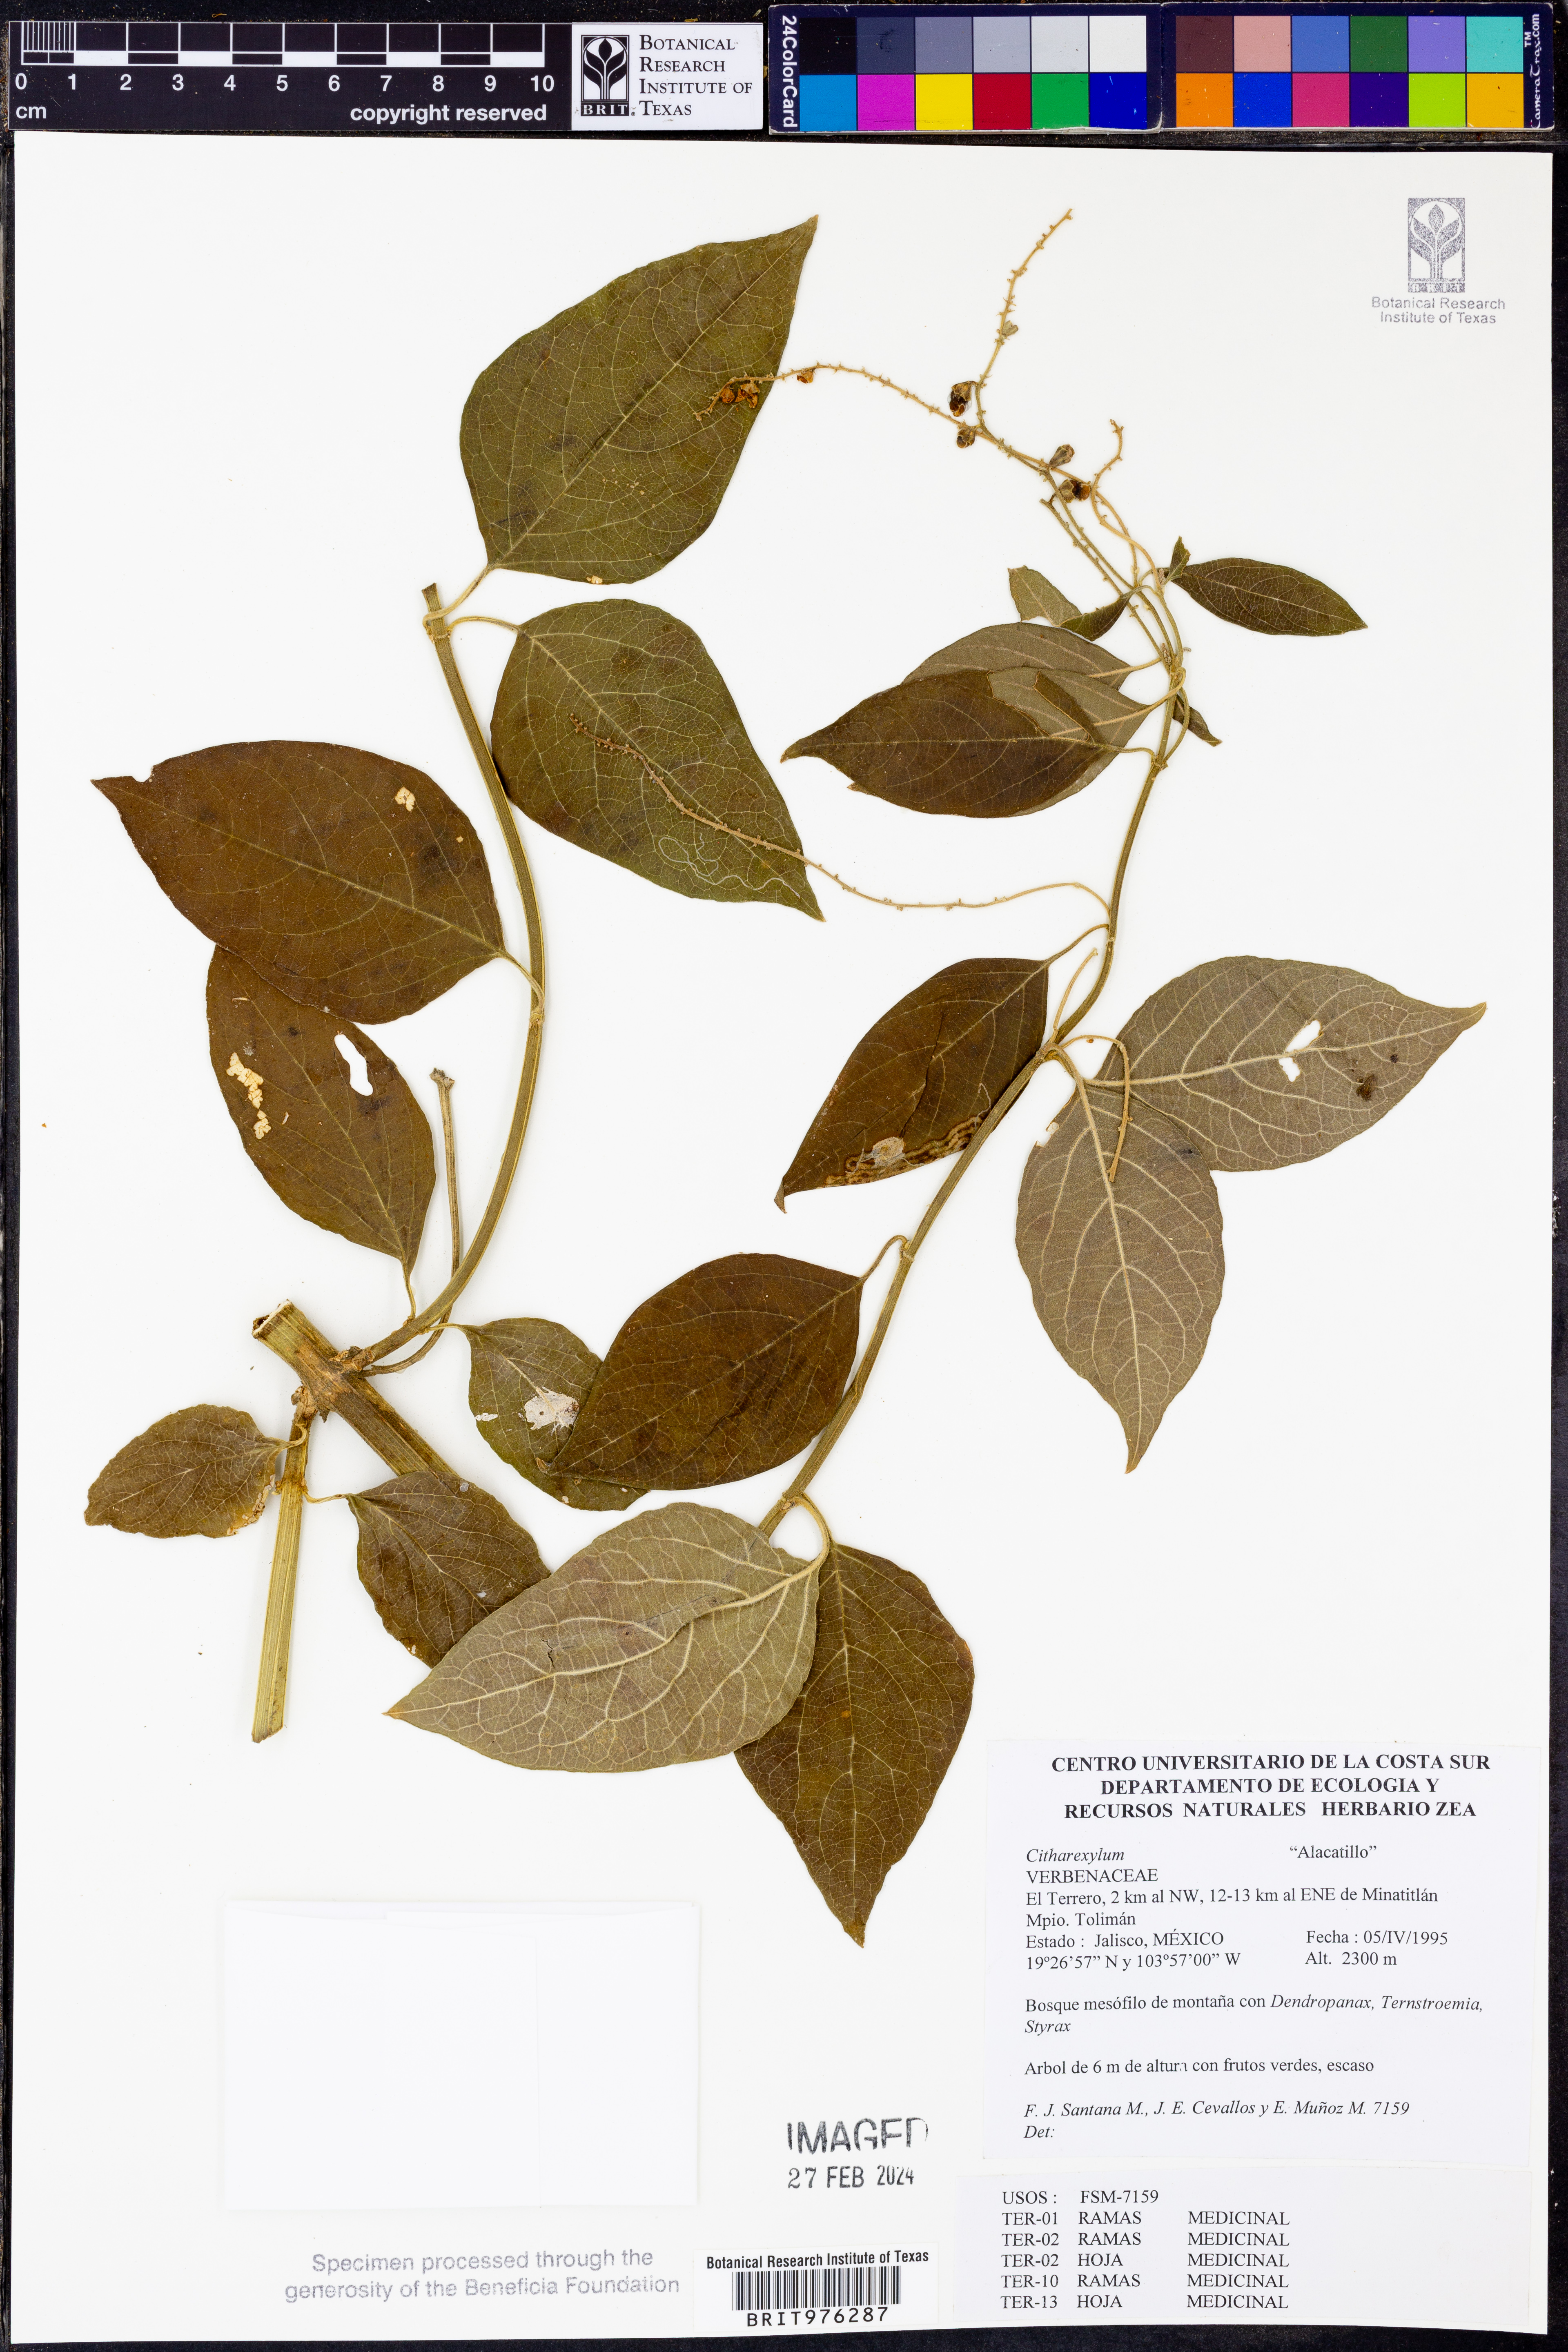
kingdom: Plantae
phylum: Tracheophyta
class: Magnoliopsida
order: Lamiales
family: Verbenaceae
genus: Citharexylum
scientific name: Citharexylum
